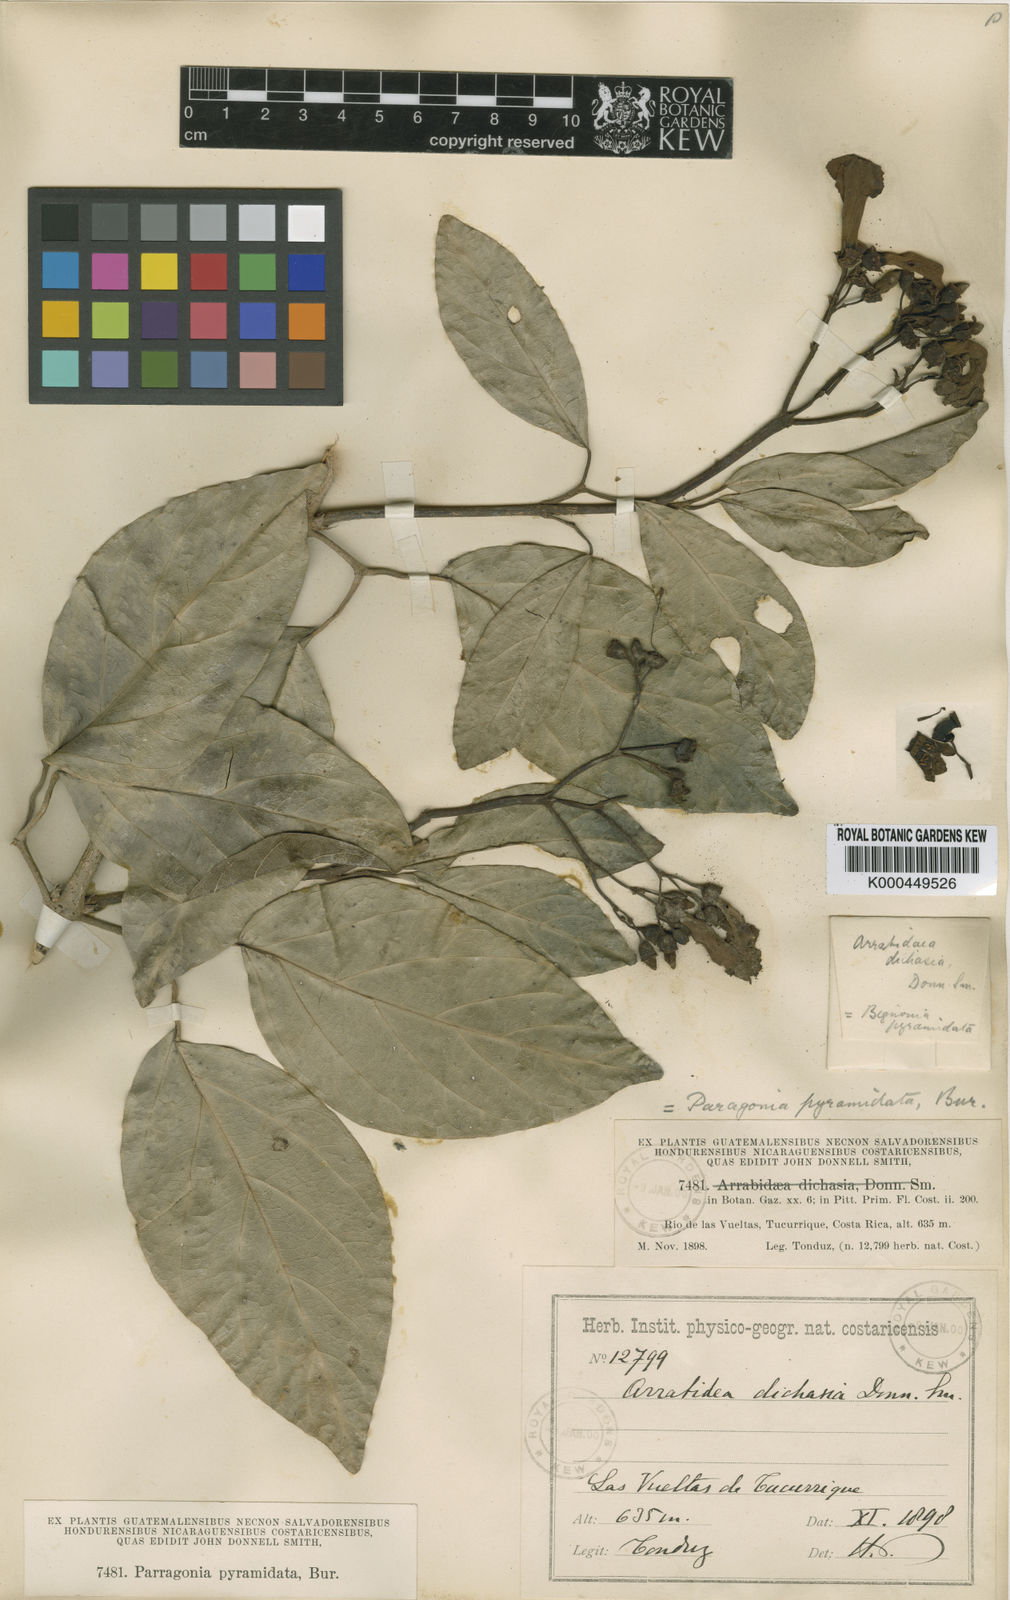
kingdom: Plantae
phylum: Tracheophyta
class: Magnoliopsida
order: Lamiales
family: Bignoniaceae
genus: Tanaecium
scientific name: Tanaecium pyramidatum
